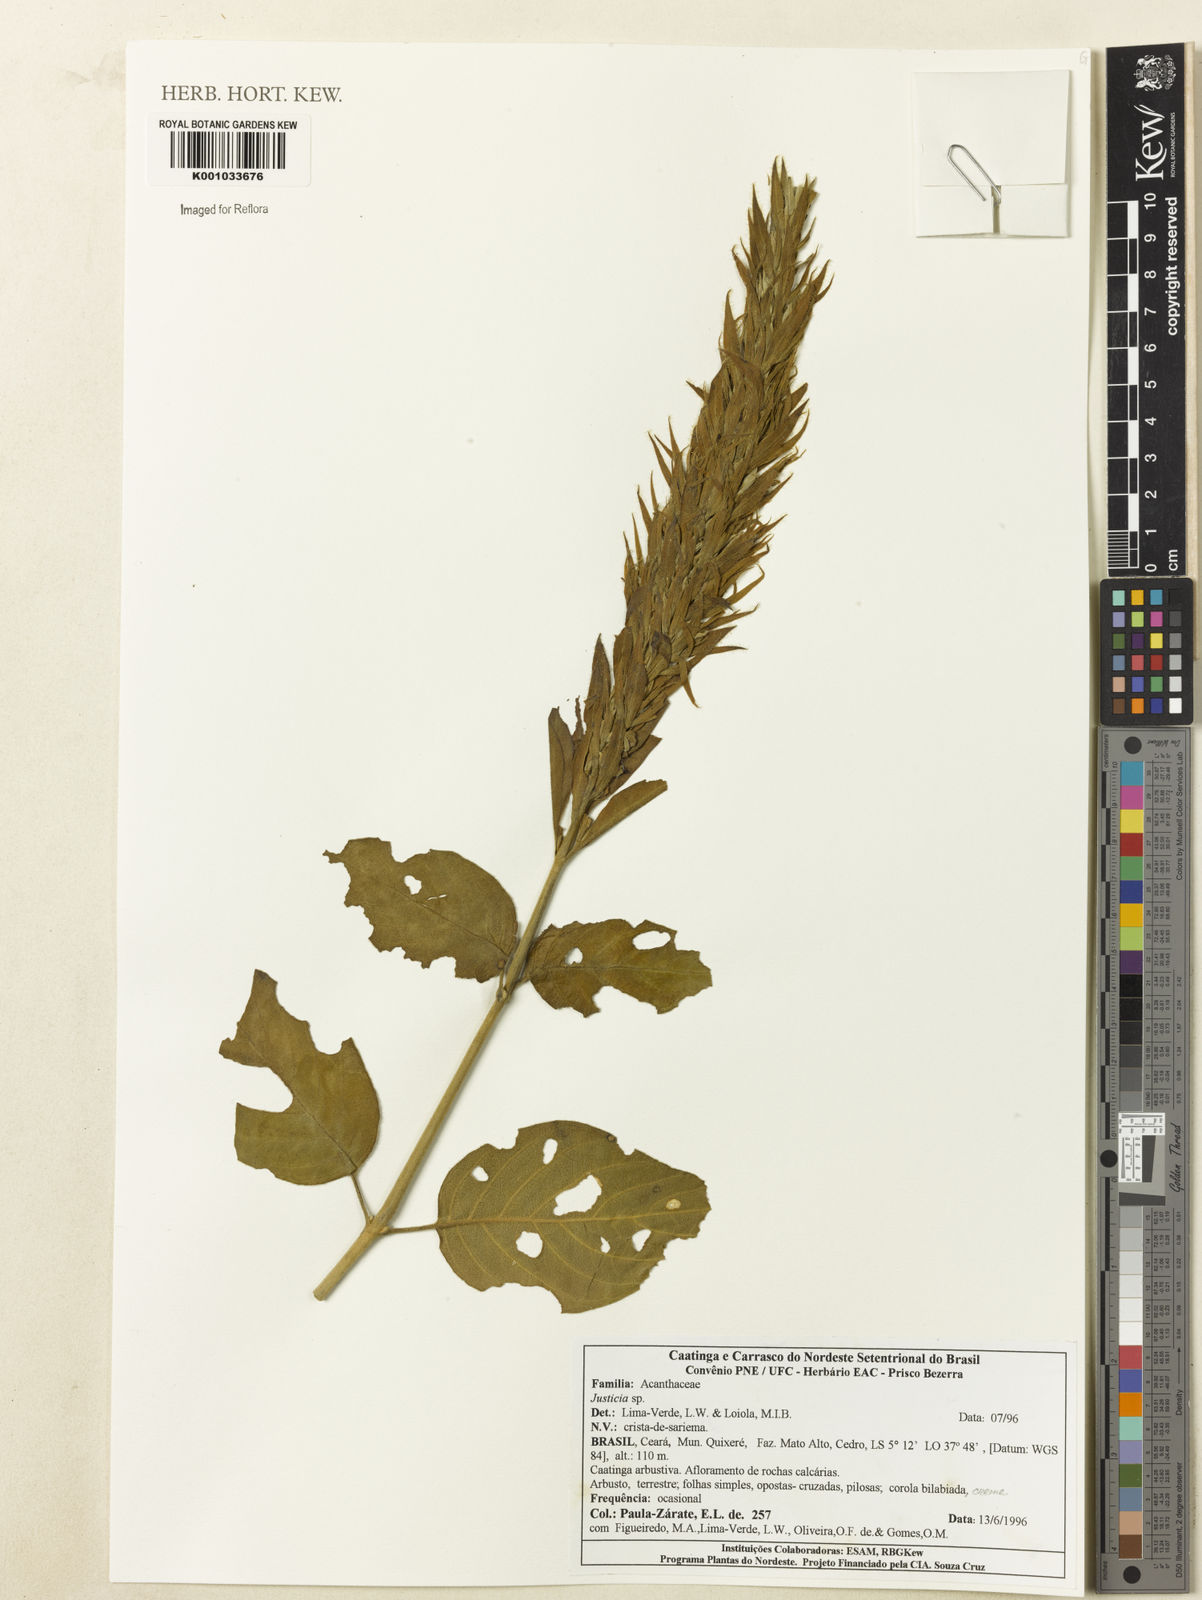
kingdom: Plantae
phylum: Tracheophyta
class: Magnoliopsida
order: Lamiales
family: Acanthaceae
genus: Justicia
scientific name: Justicia
